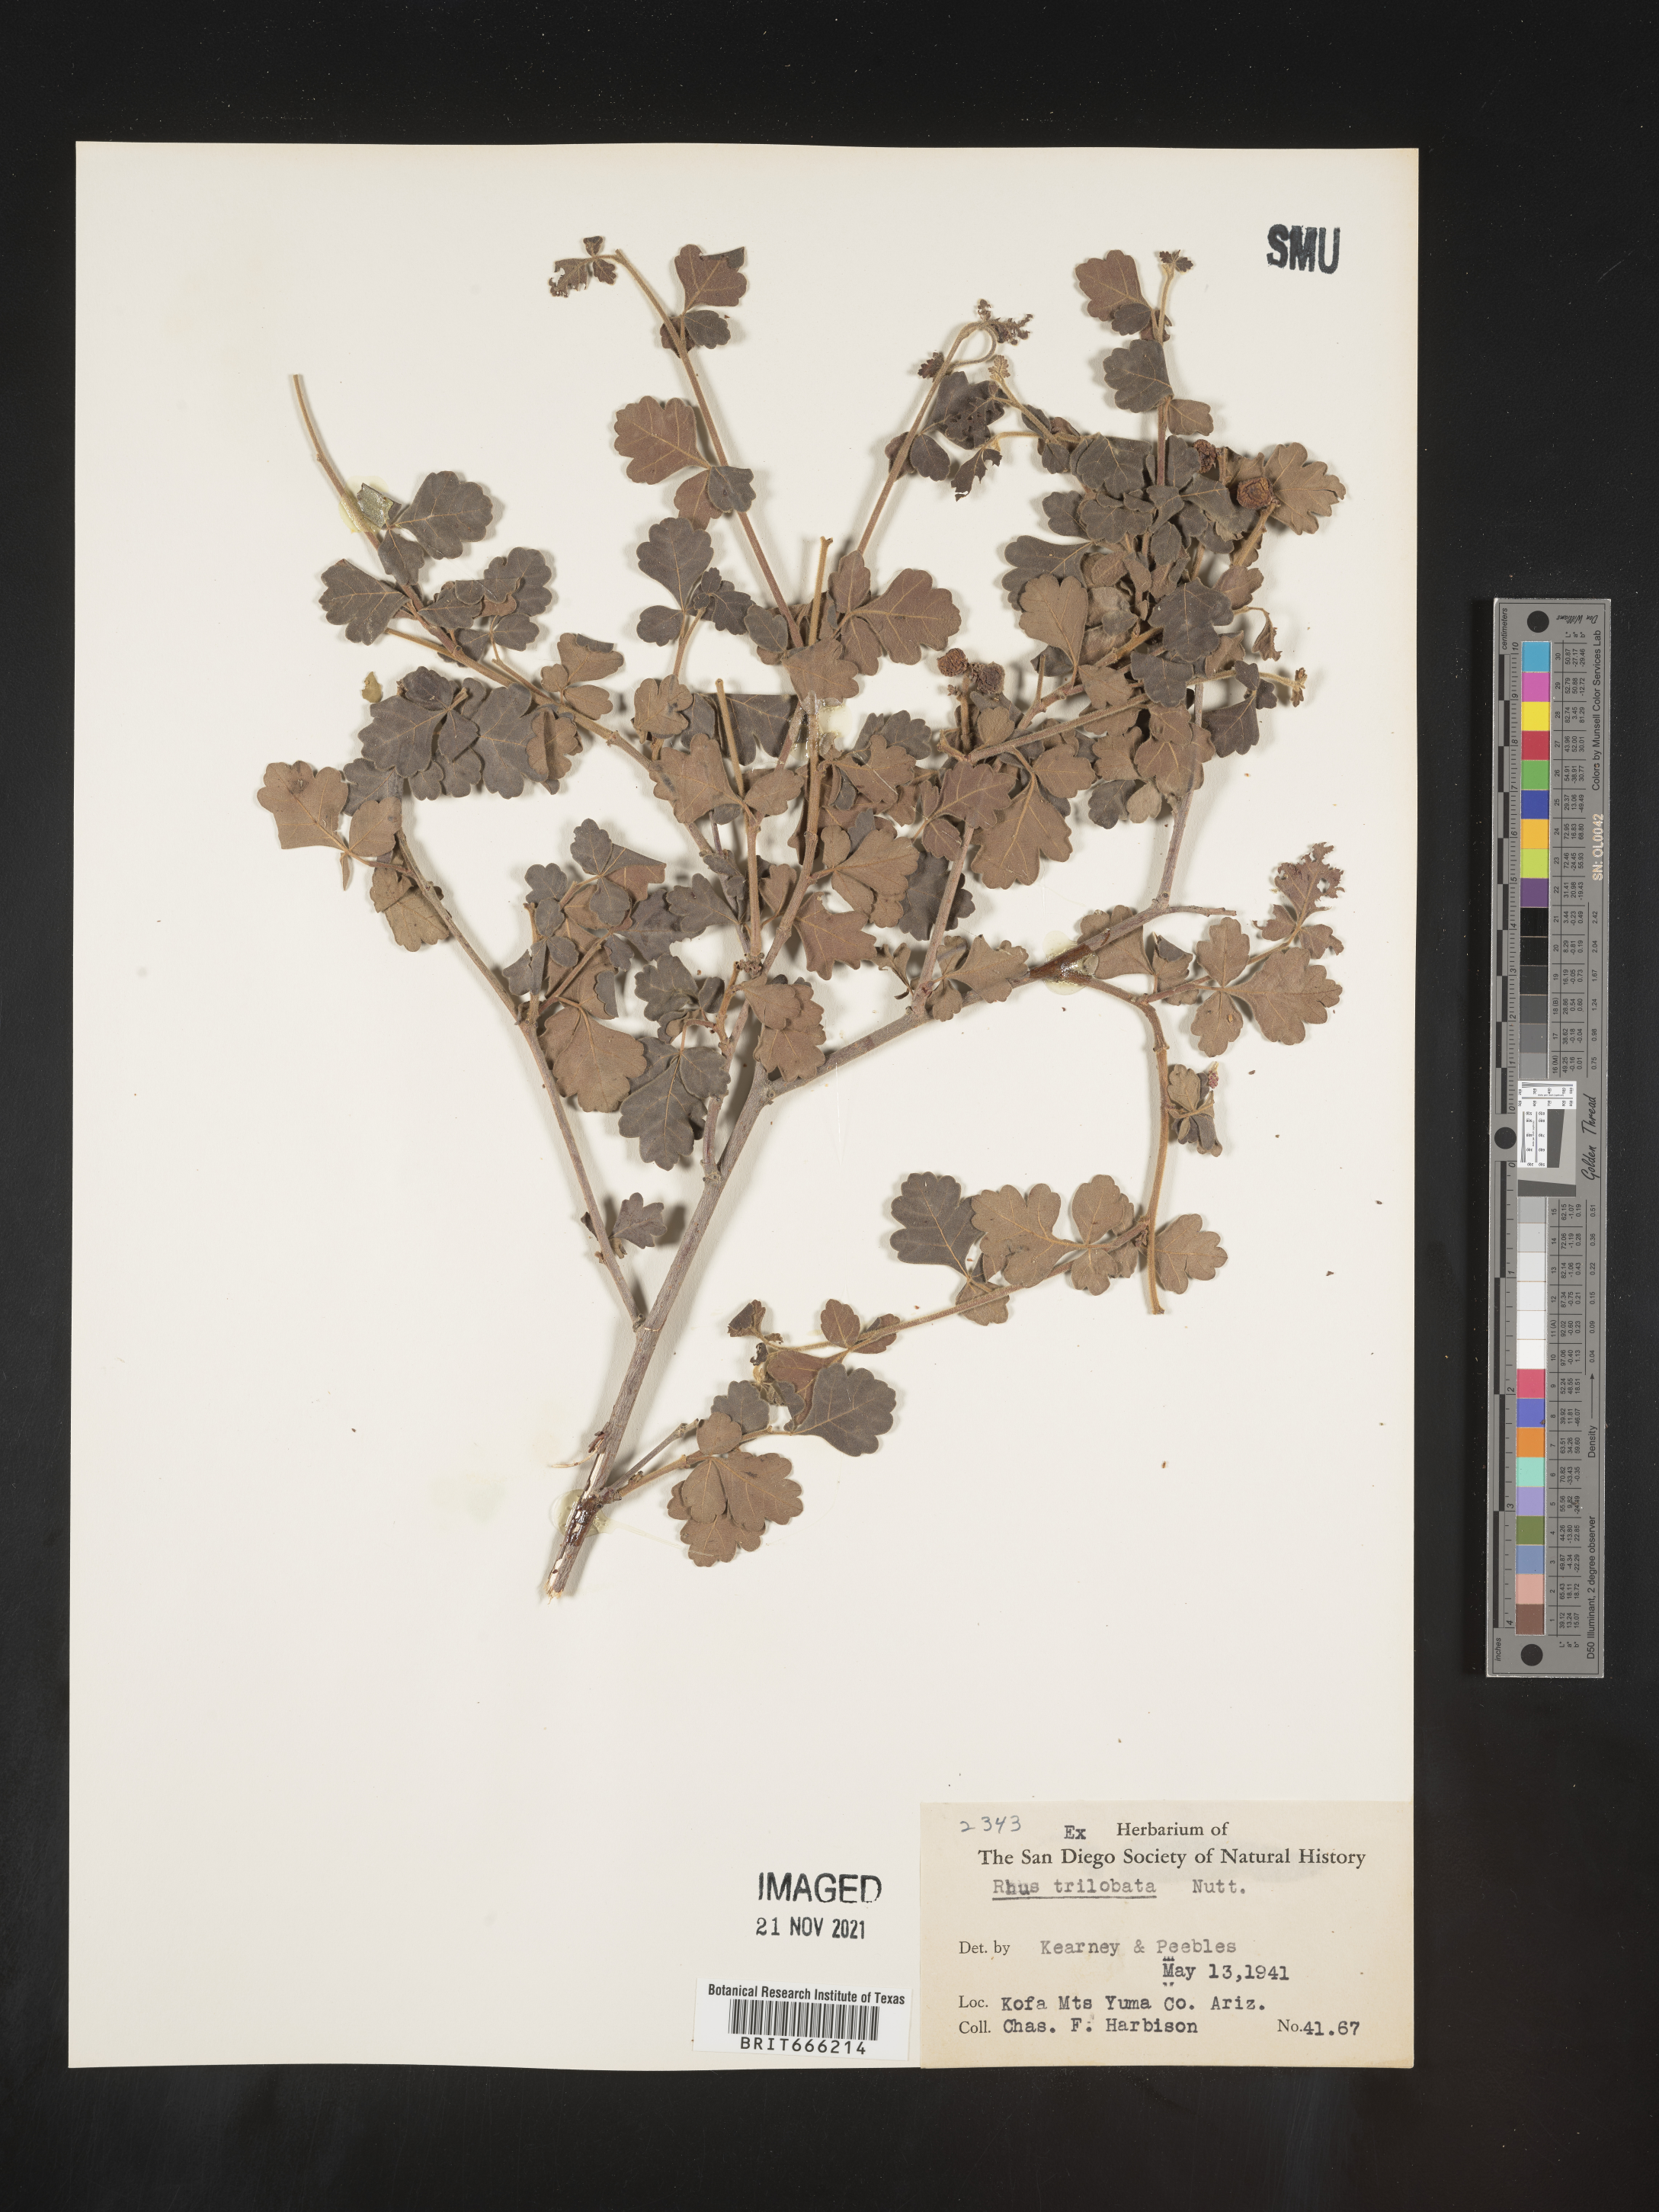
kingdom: Plantae
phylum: Tracheophyta
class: Magnoliopsida
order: Sapindales
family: Anacardiaceae
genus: Rhus
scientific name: Rhus trilobata
